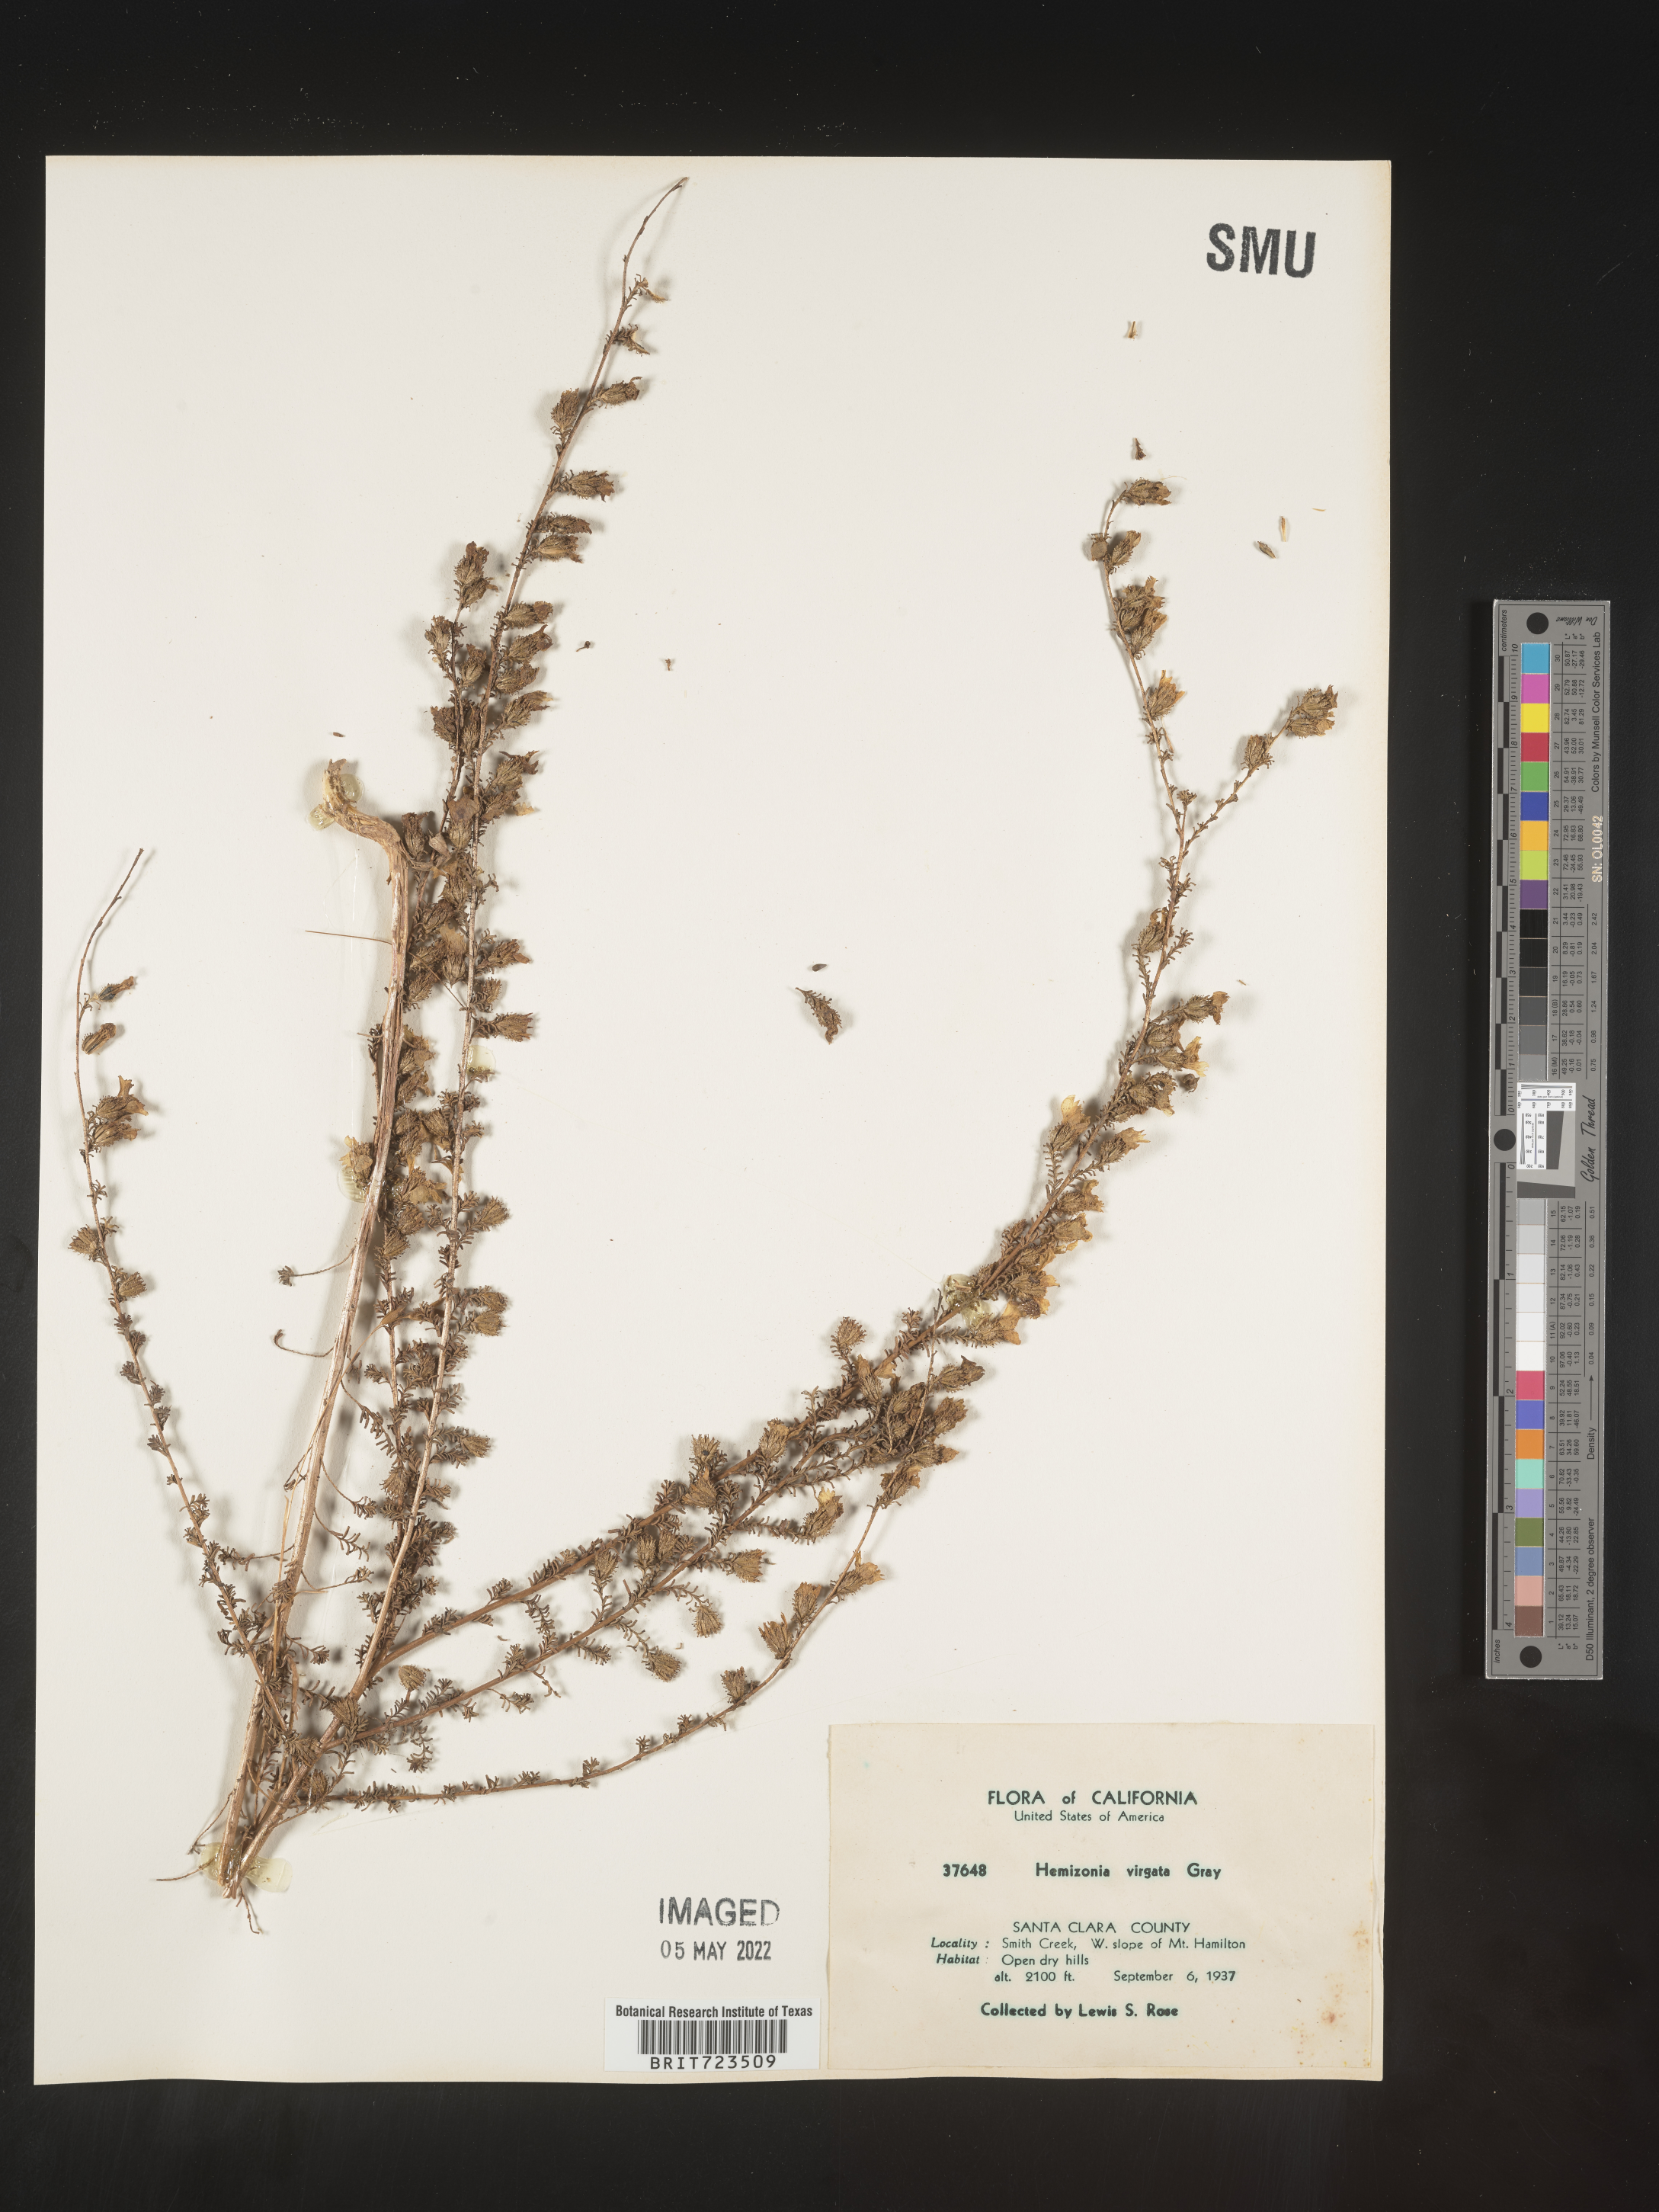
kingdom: Plantae
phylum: Tracheophyta
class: Magnoliopsida
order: Asterales
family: Asteraceae
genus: Hemizonia
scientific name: Hemizonia
